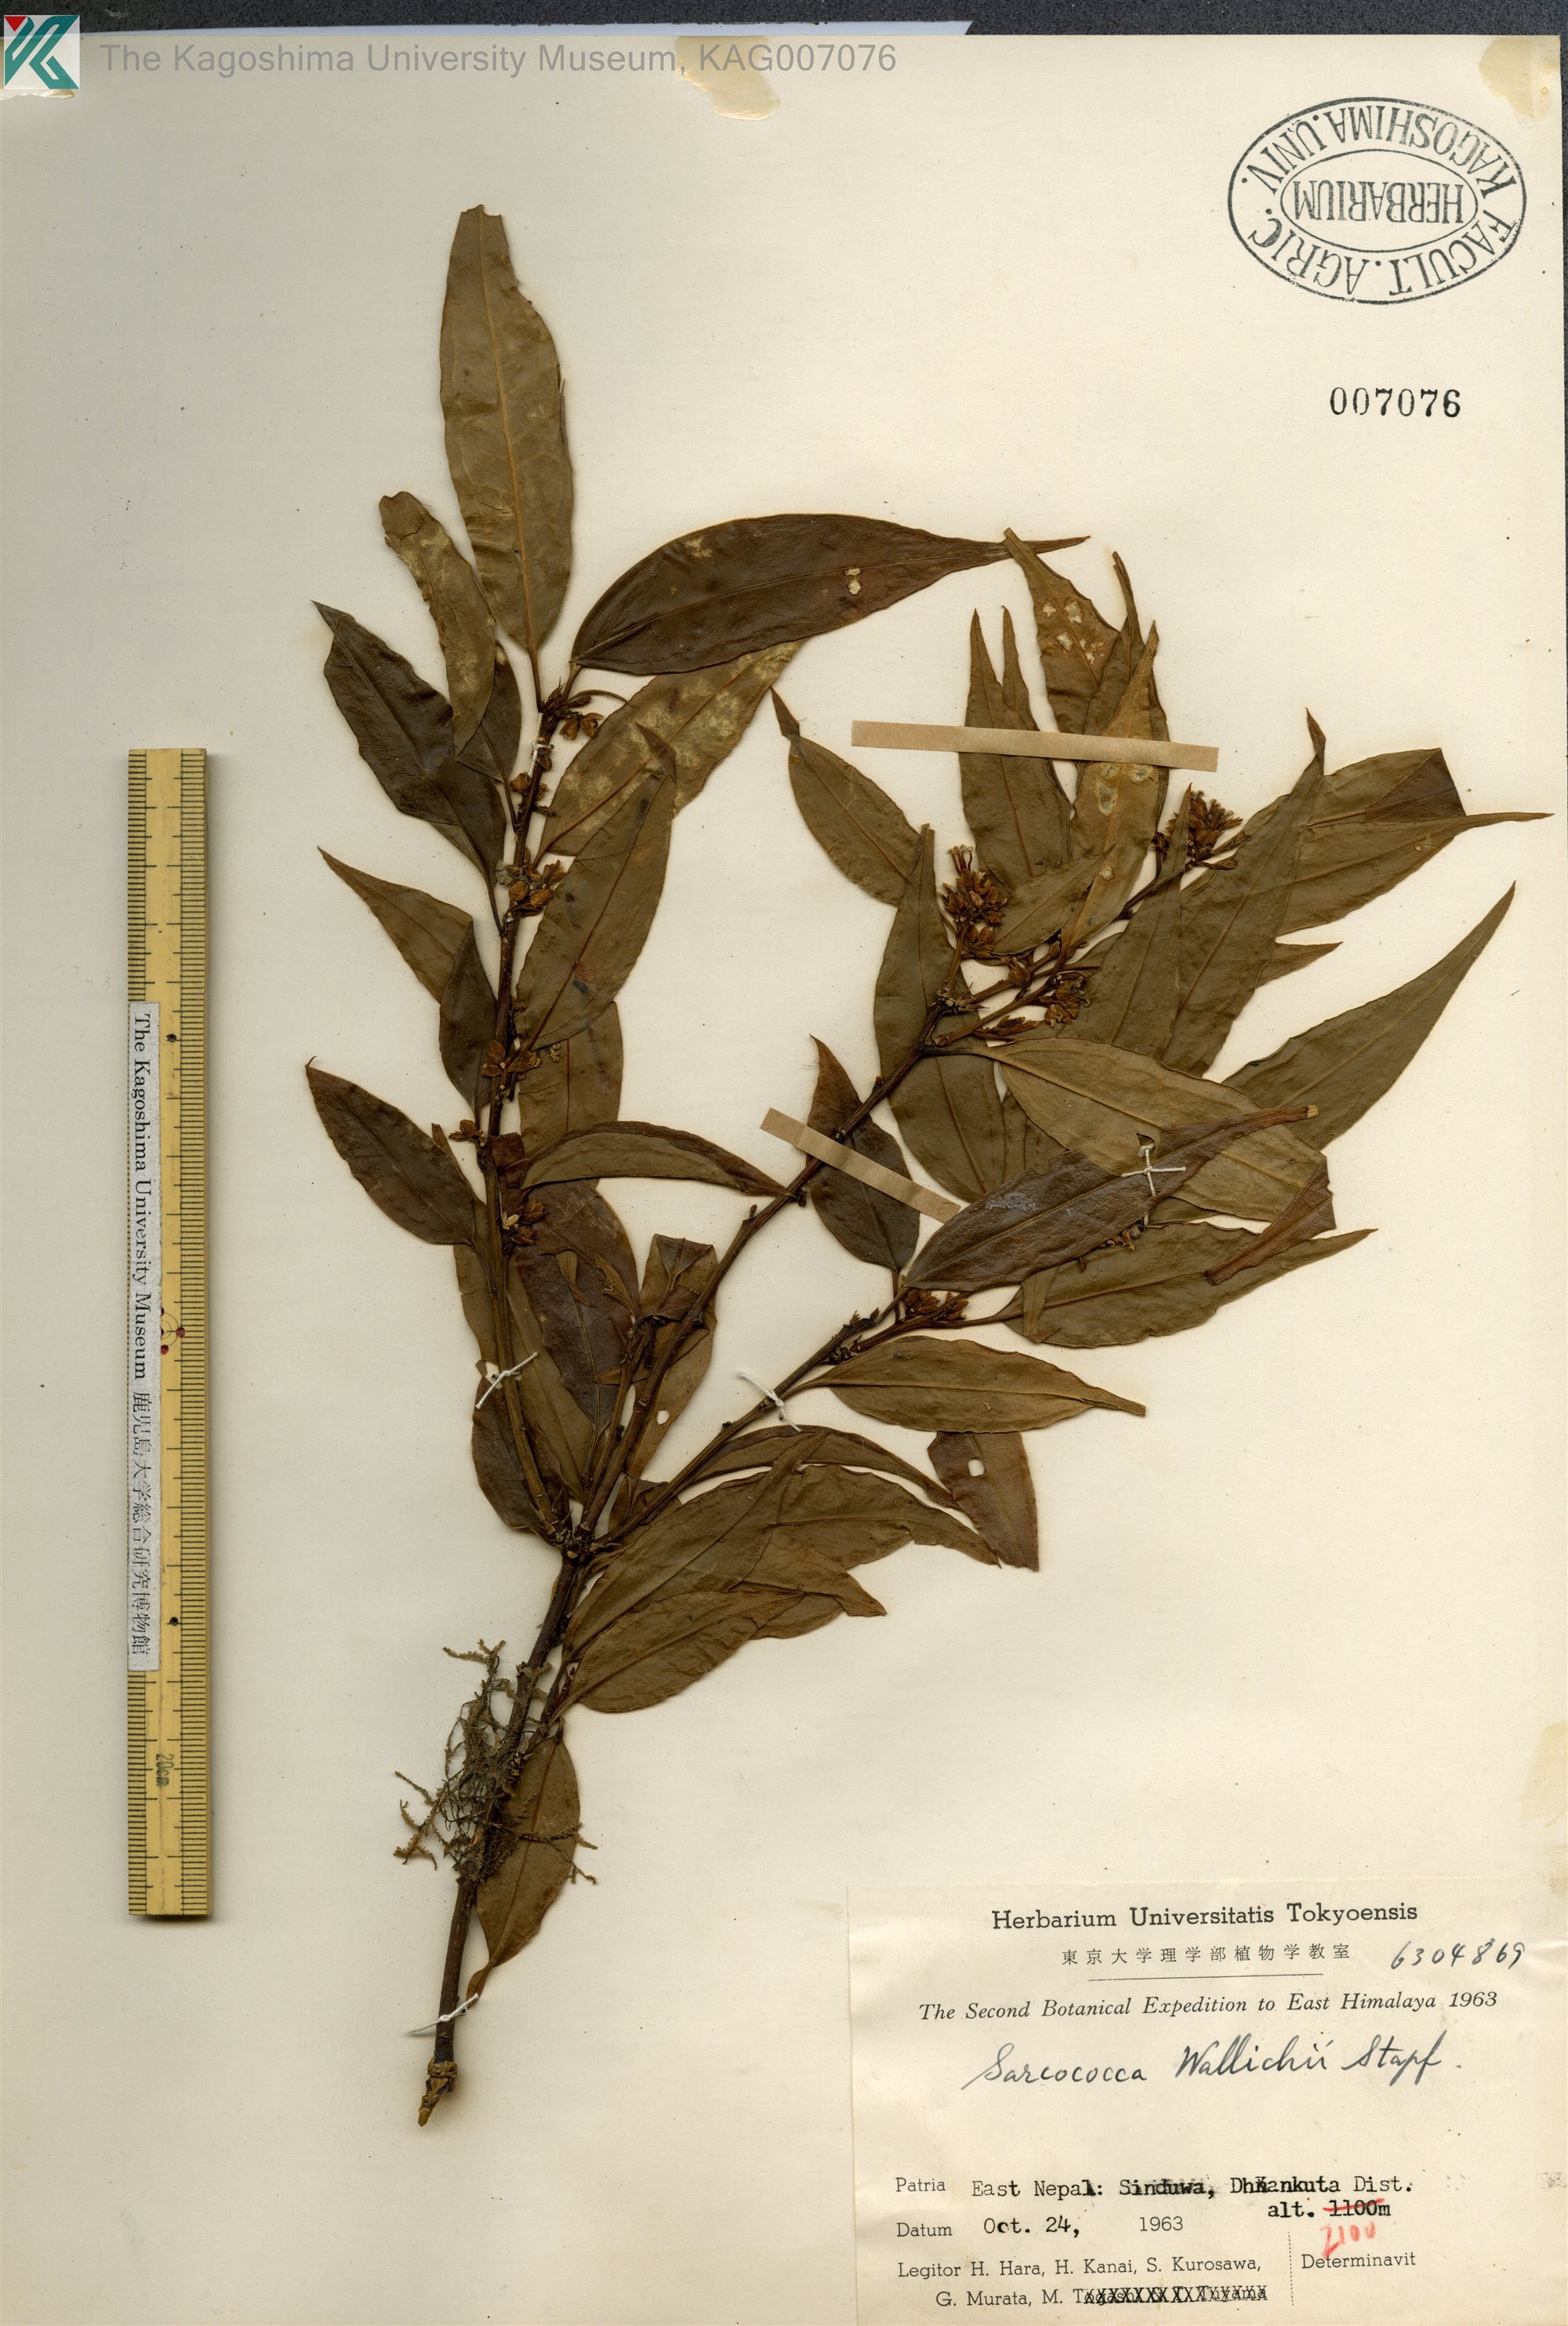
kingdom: Plantae
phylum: Tracheophyta
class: Magnoliopsida
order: Buxales
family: Buxaceae
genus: Sarcococca
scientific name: Sarcococca wallichii
